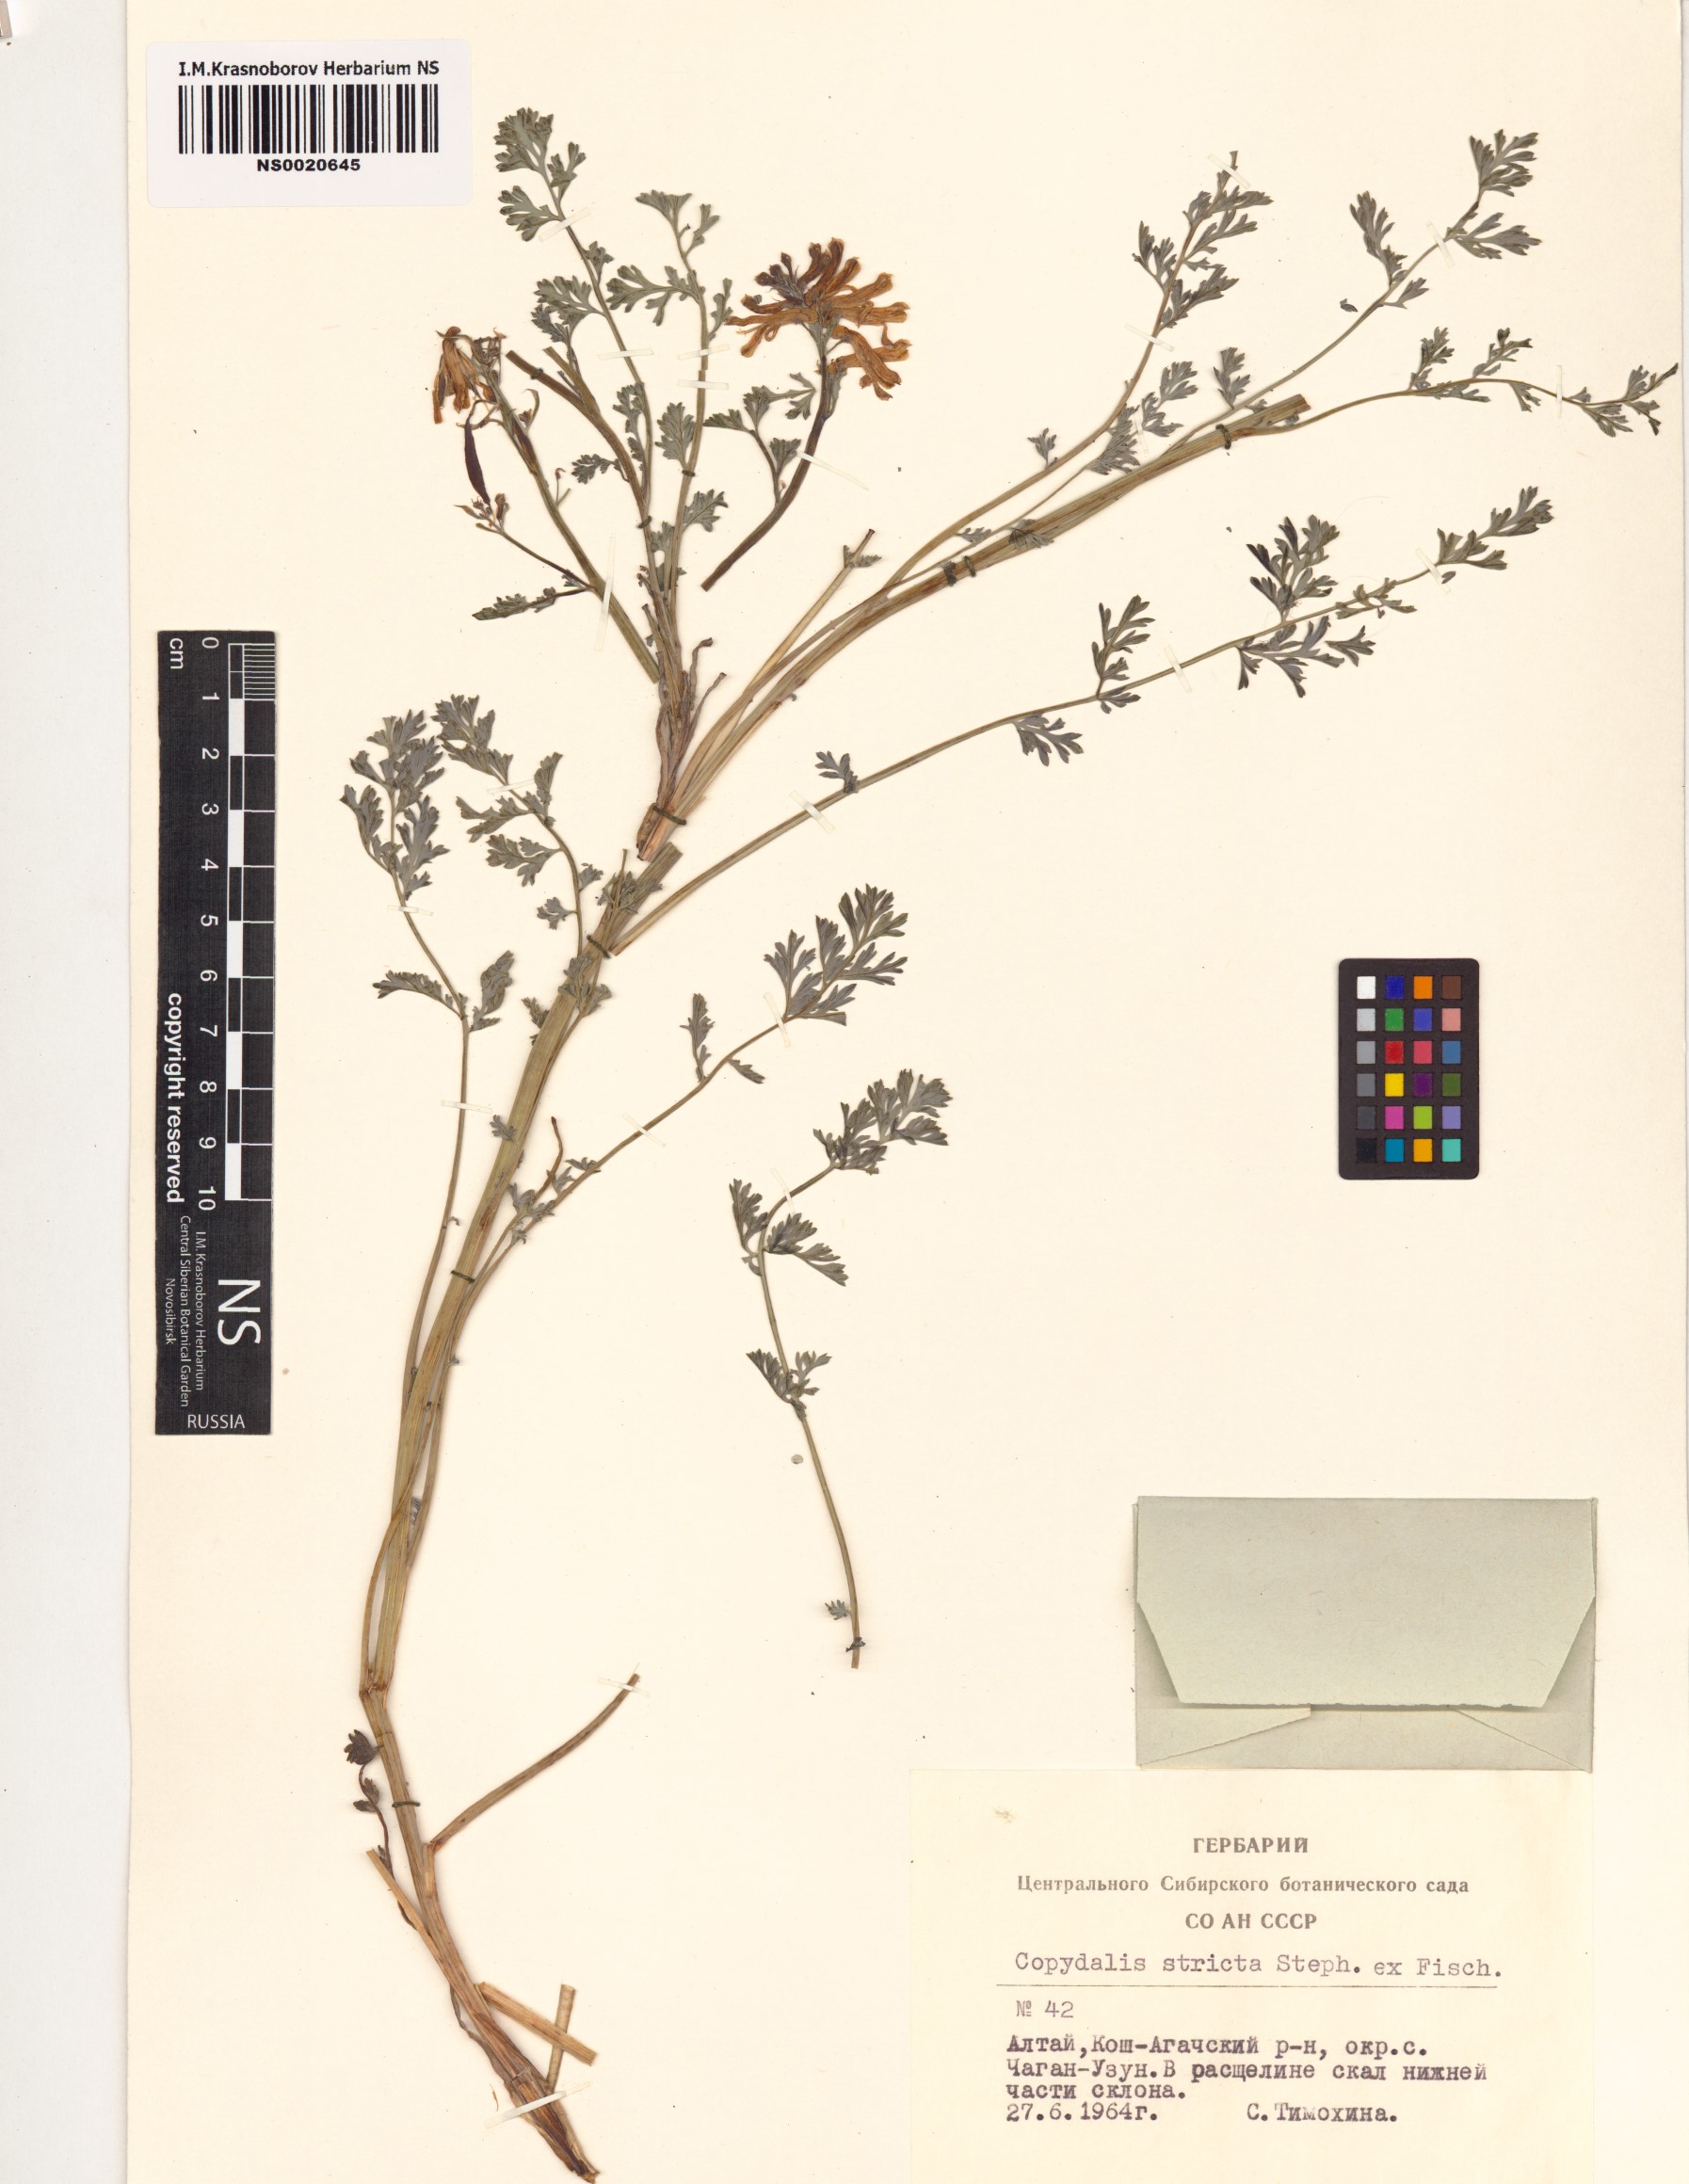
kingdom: Plantae
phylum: Tracheophyta
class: Magnoliopsida
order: Ranunculales
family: Papaveraceae
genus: Corydalis
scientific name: Corydalis stricta
